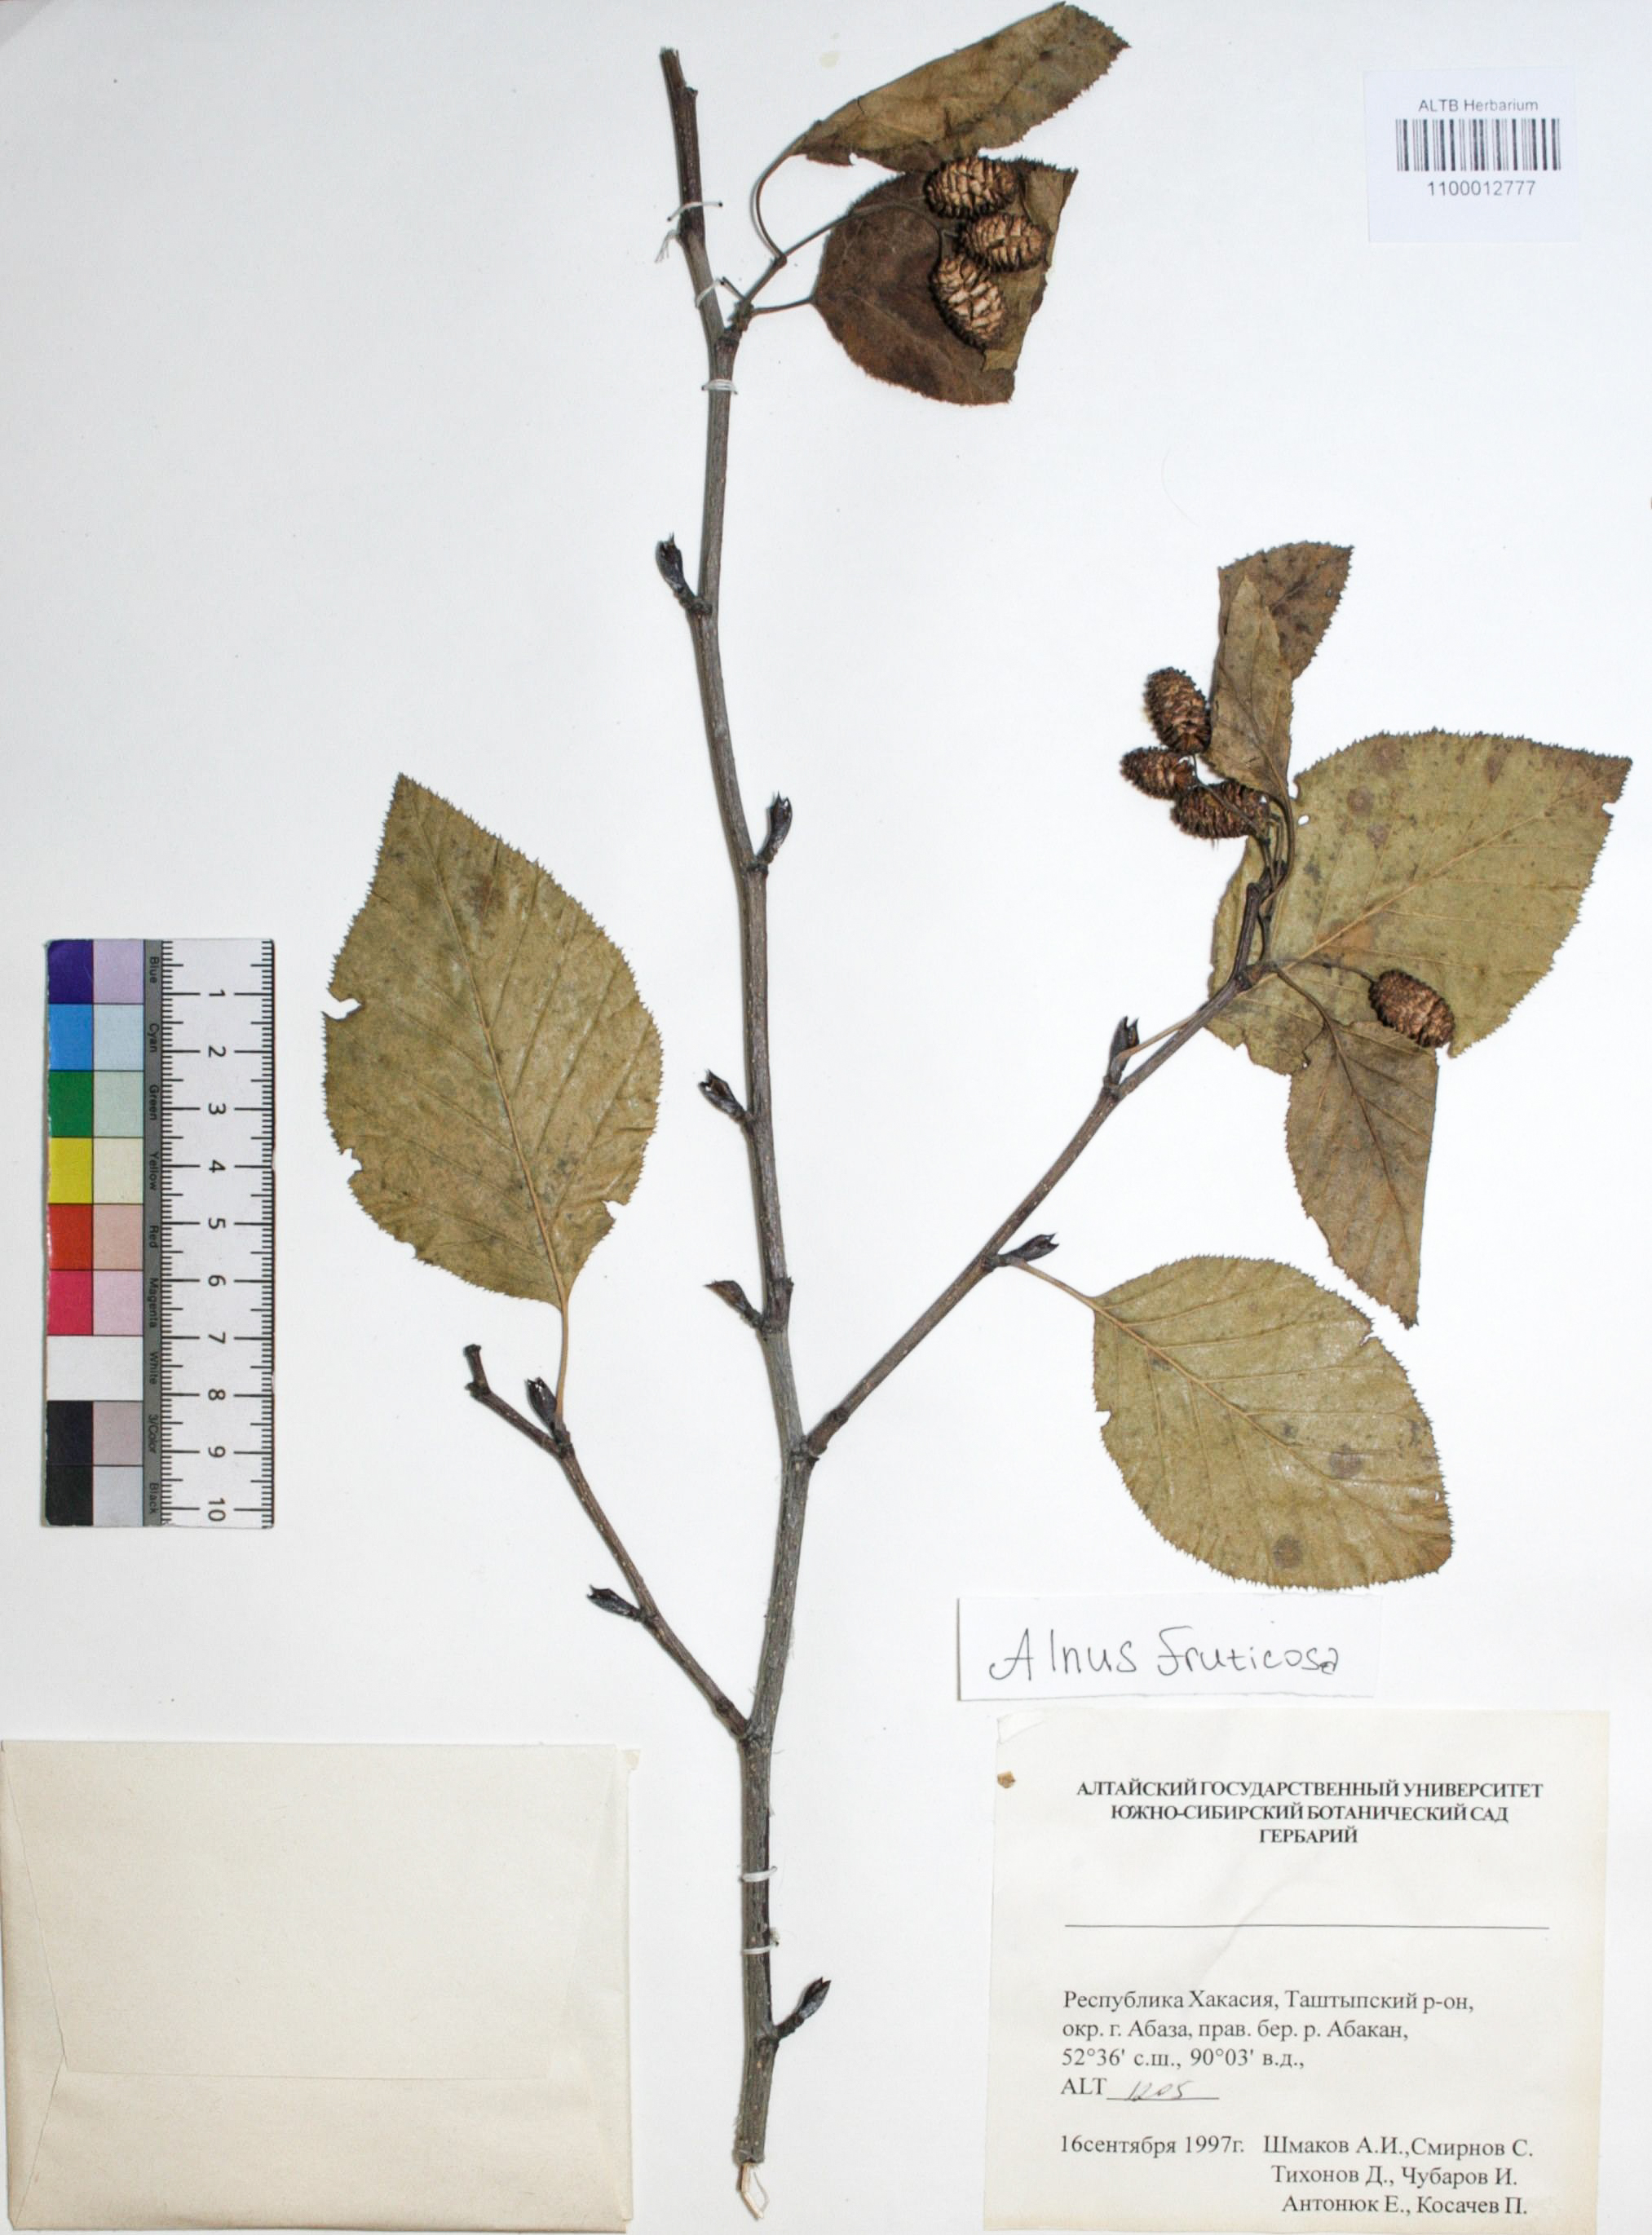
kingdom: Plantae
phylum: Tracheophyta
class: Magnoliopsida
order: Fagales
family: Betulaceae
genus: Alnus
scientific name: Alnus alnobetula
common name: Green alder
